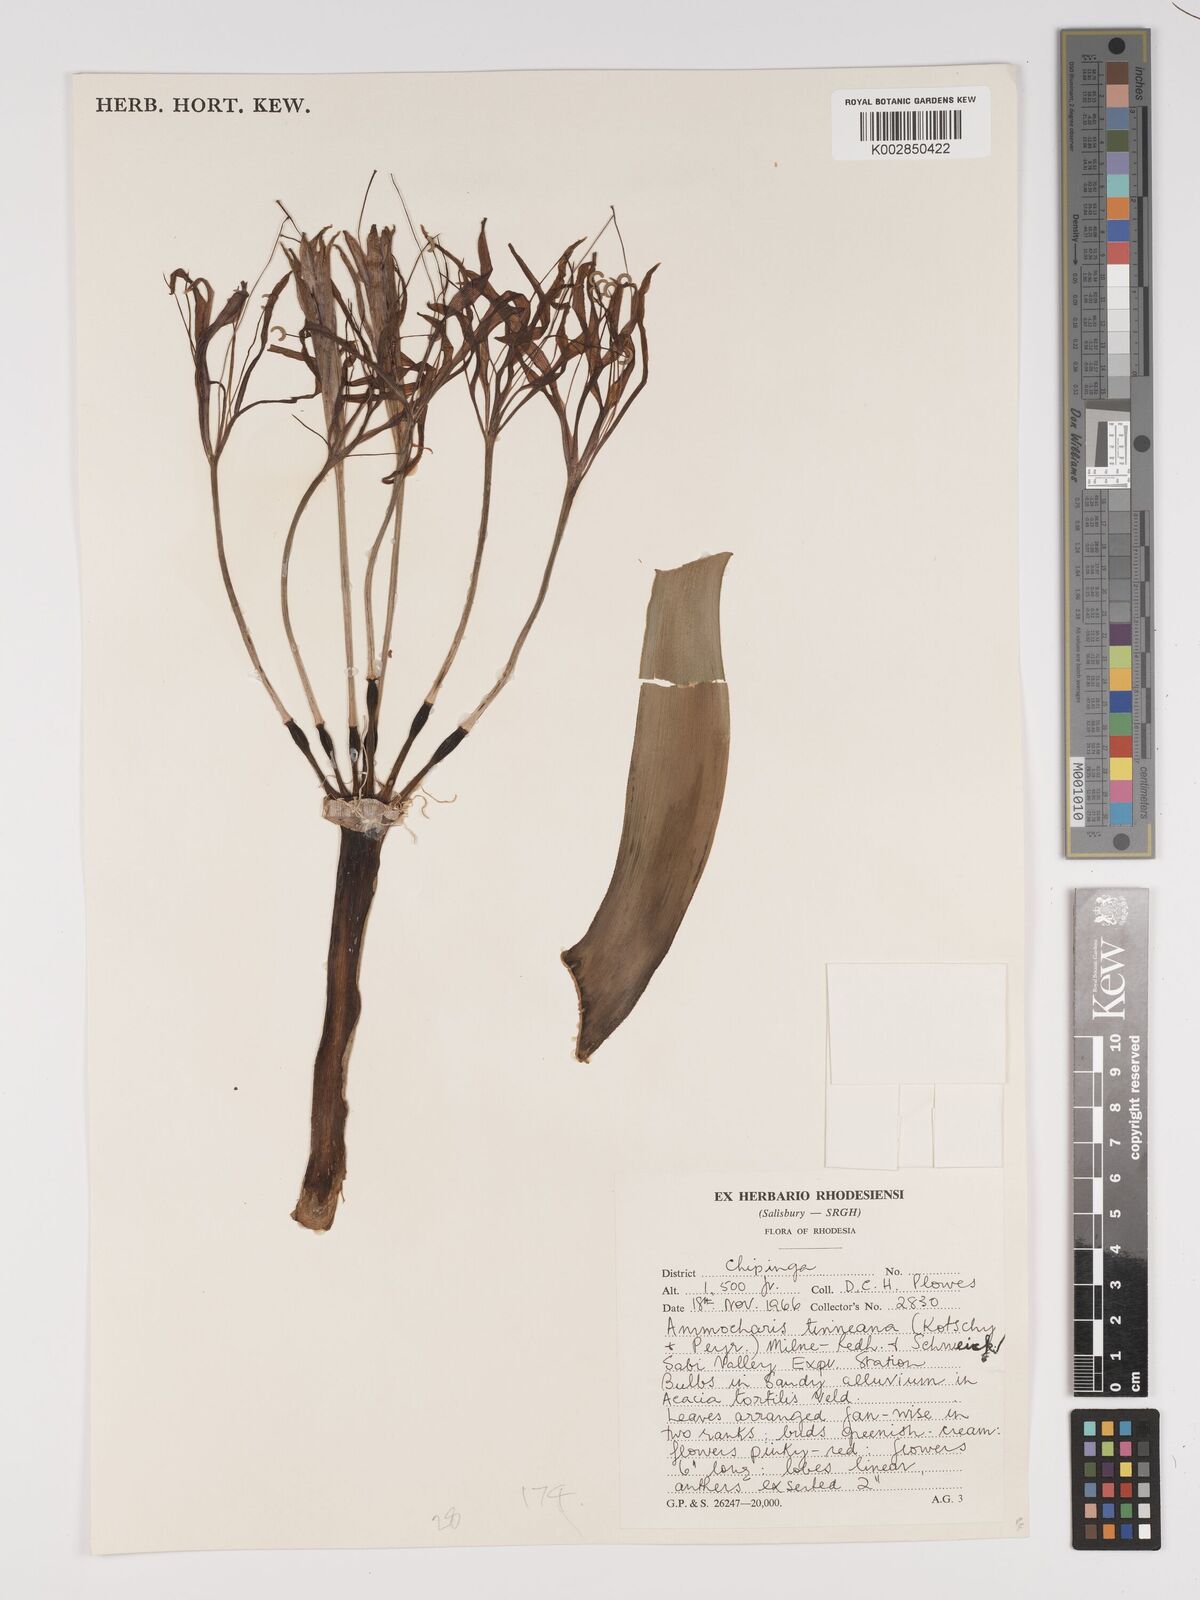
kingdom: Plantae
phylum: Tracheophyta
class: Liliopsida
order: Asparagales
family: Amaryllidaceae
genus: Ammocharis
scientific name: Ammocharis tinneana
